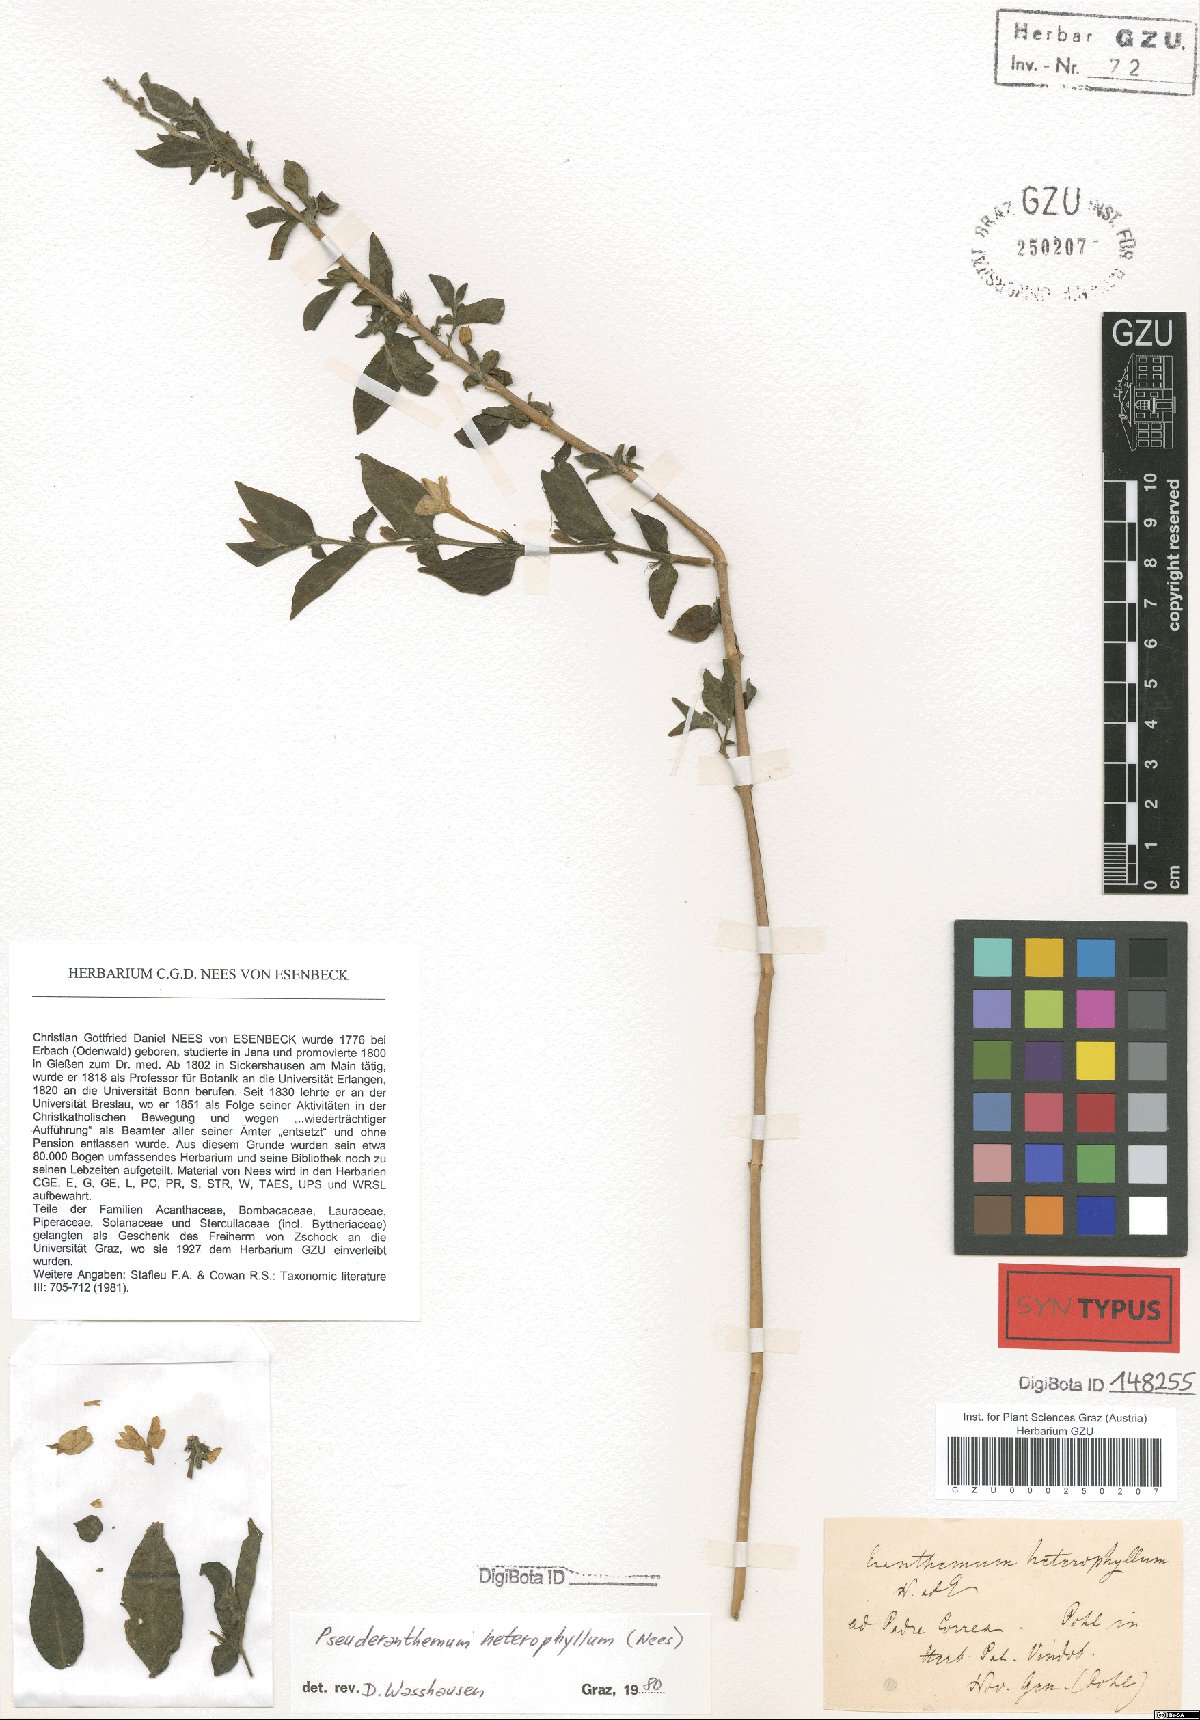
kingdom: Plantae
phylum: Tracheophyta
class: Magnoliopsida
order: Lamiales
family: Acanthaceae
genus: Pseuderanthemum
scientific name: Pseuderanthemum heterophyllum
